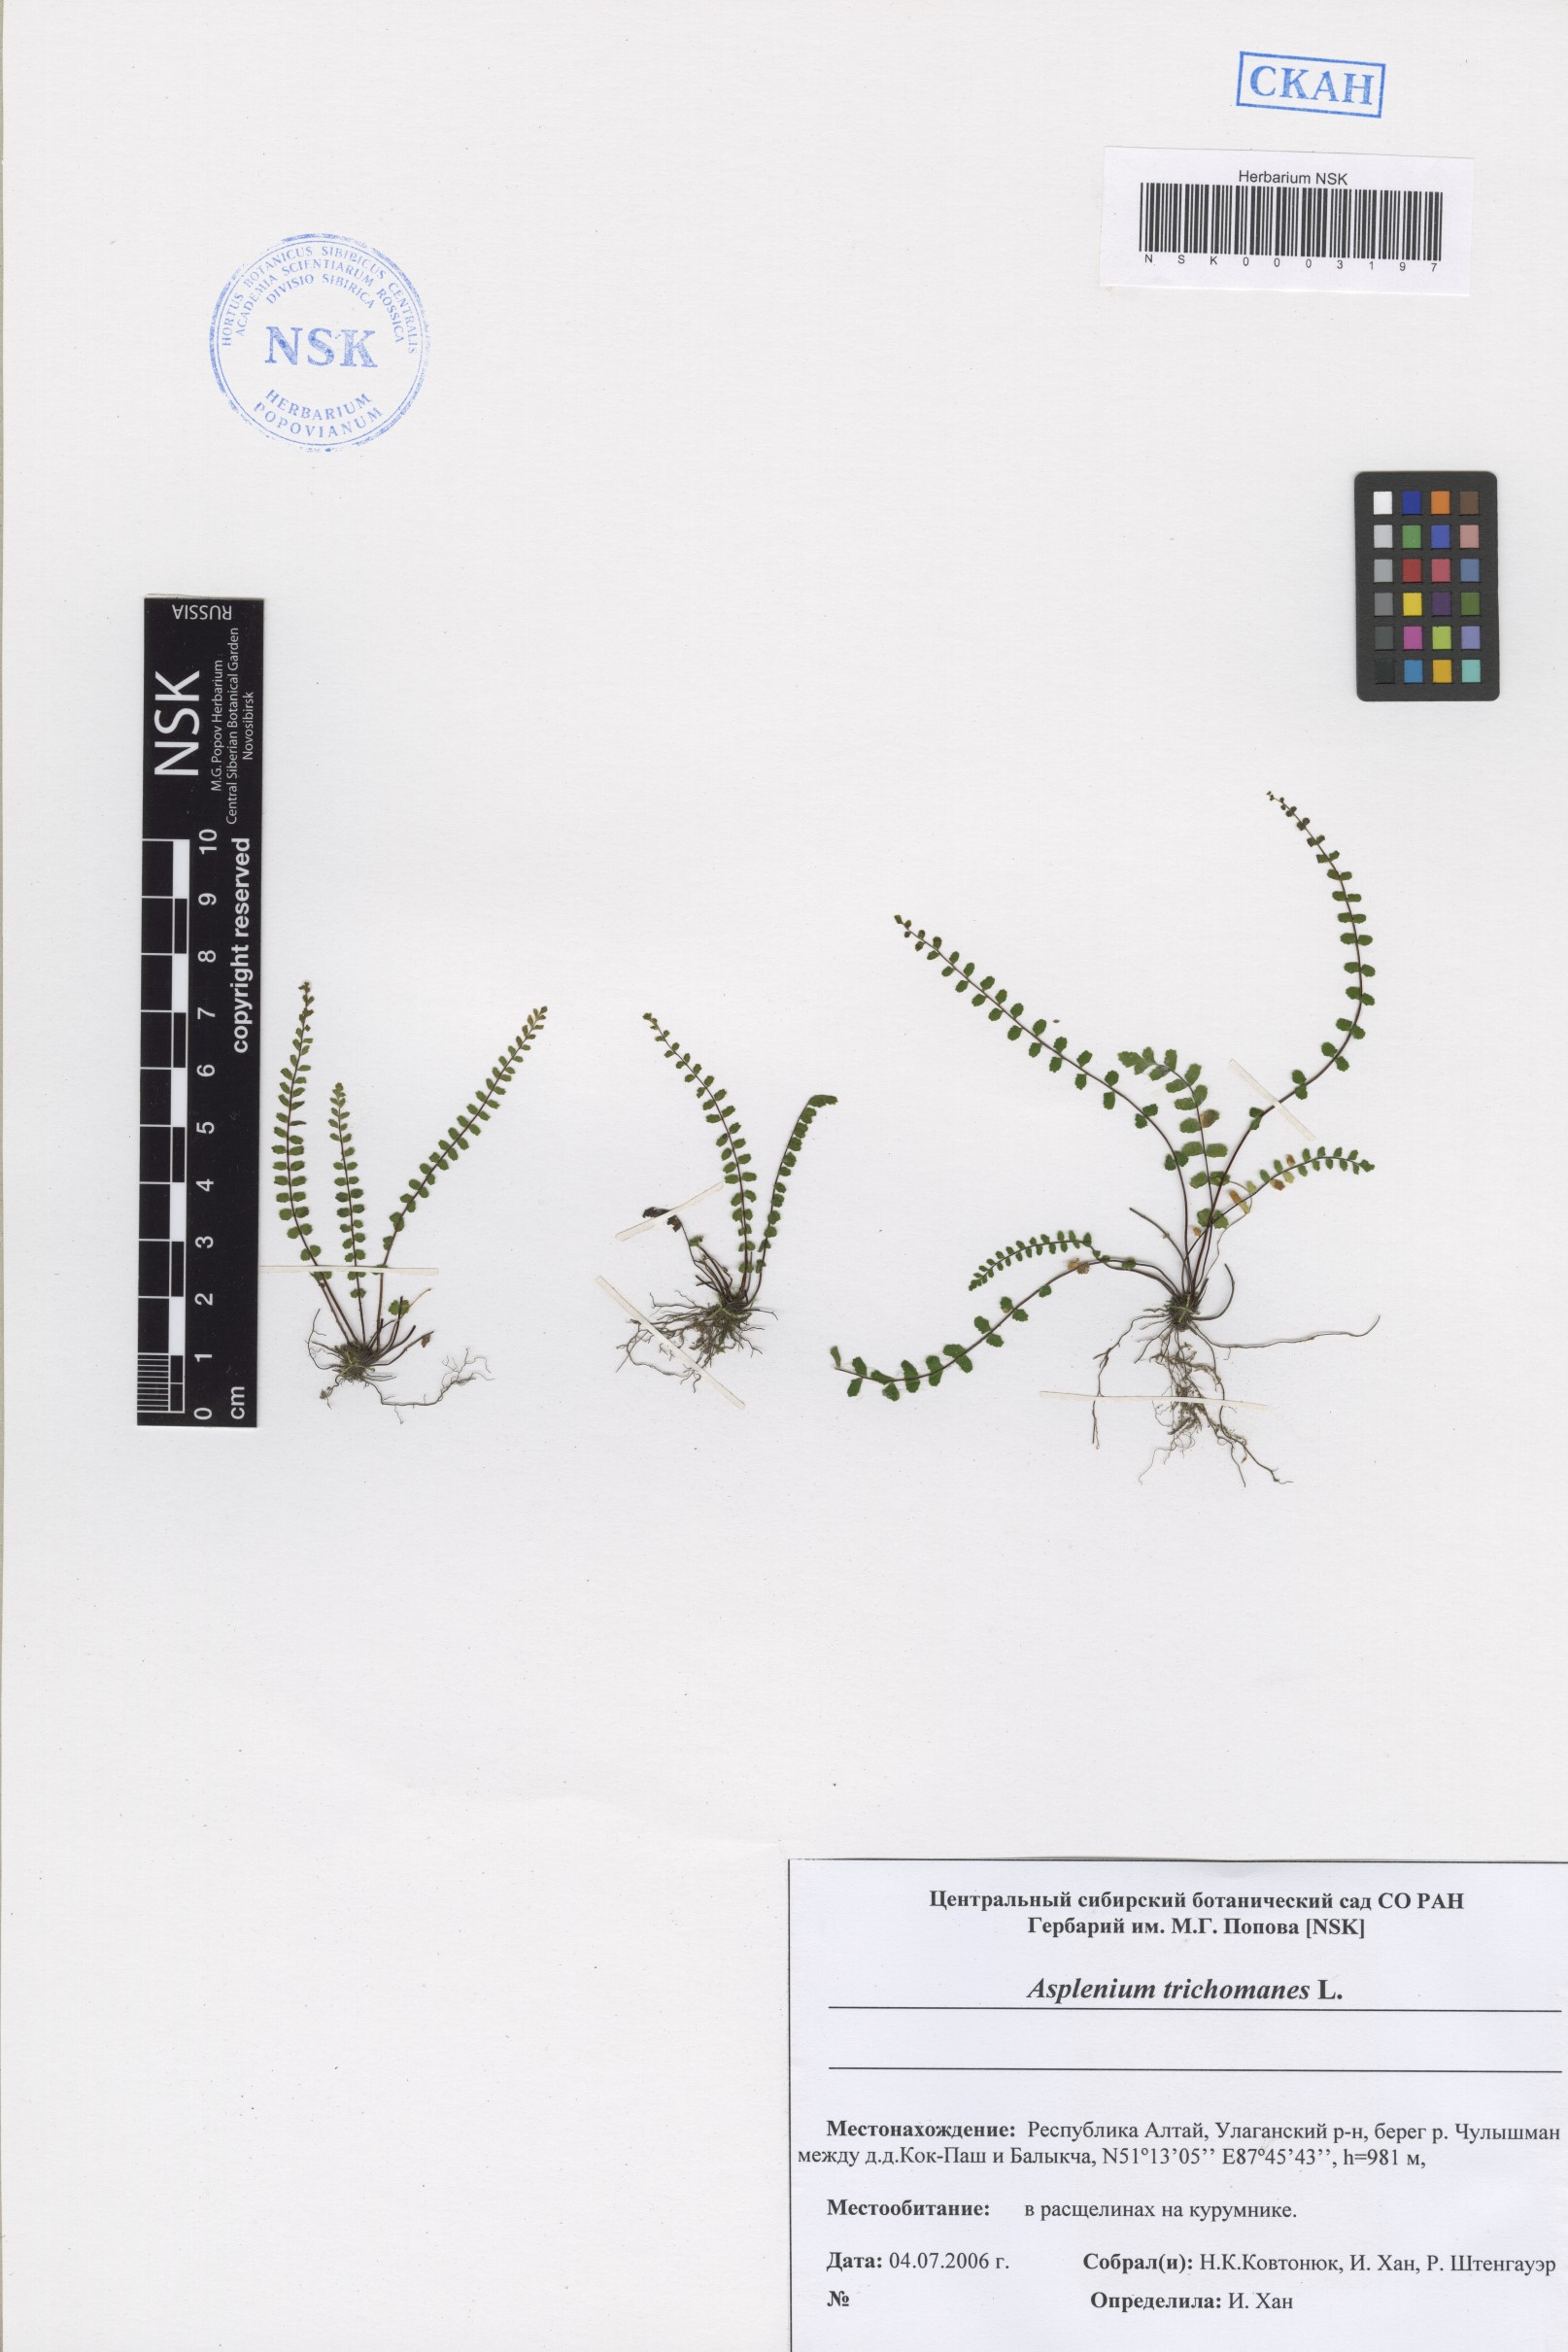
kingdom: Plantae
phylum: Tracheophyta
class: Polypodiopsida
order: Polypodiales
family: Aspleniaceae
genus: Asplenium
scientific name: Asplenium trichomanes
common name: Maidenhair spleenwort
